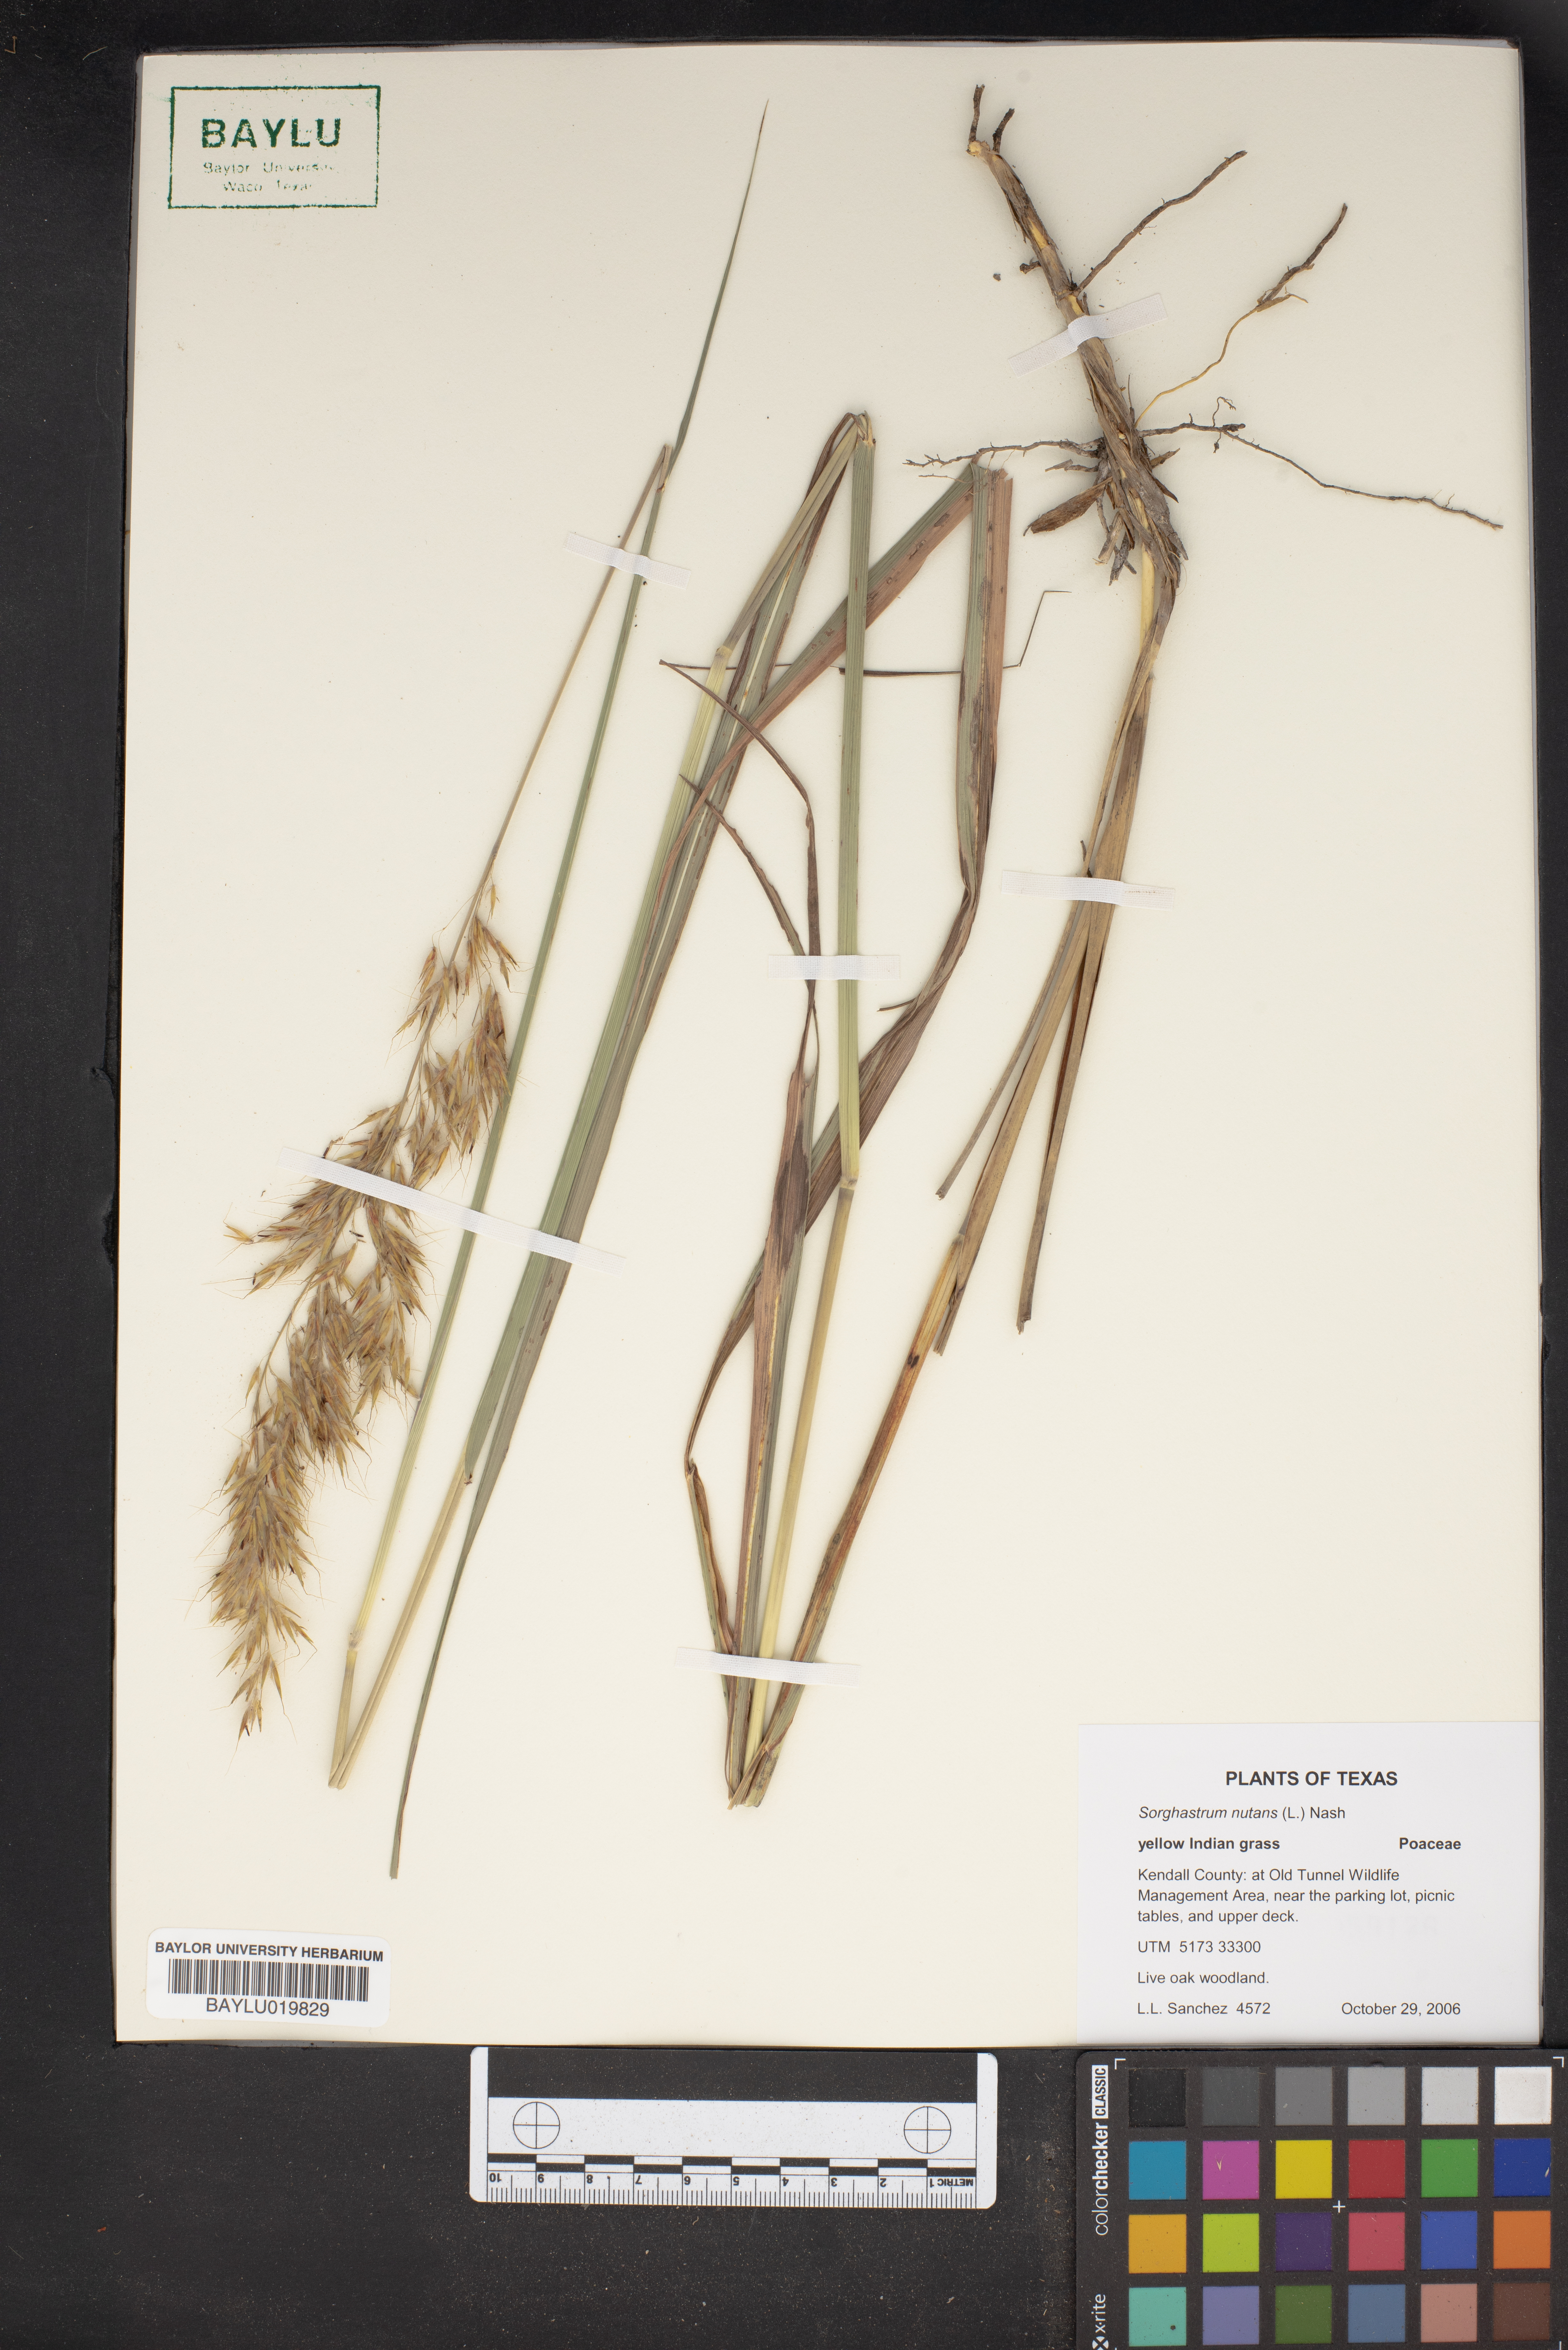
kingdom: Plantae
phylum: Tracheophyta
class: Liliopsida
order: Poales
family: Poaceae
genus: Sorghastrum
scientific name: Sorghastrum nutans
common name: Indian grass
